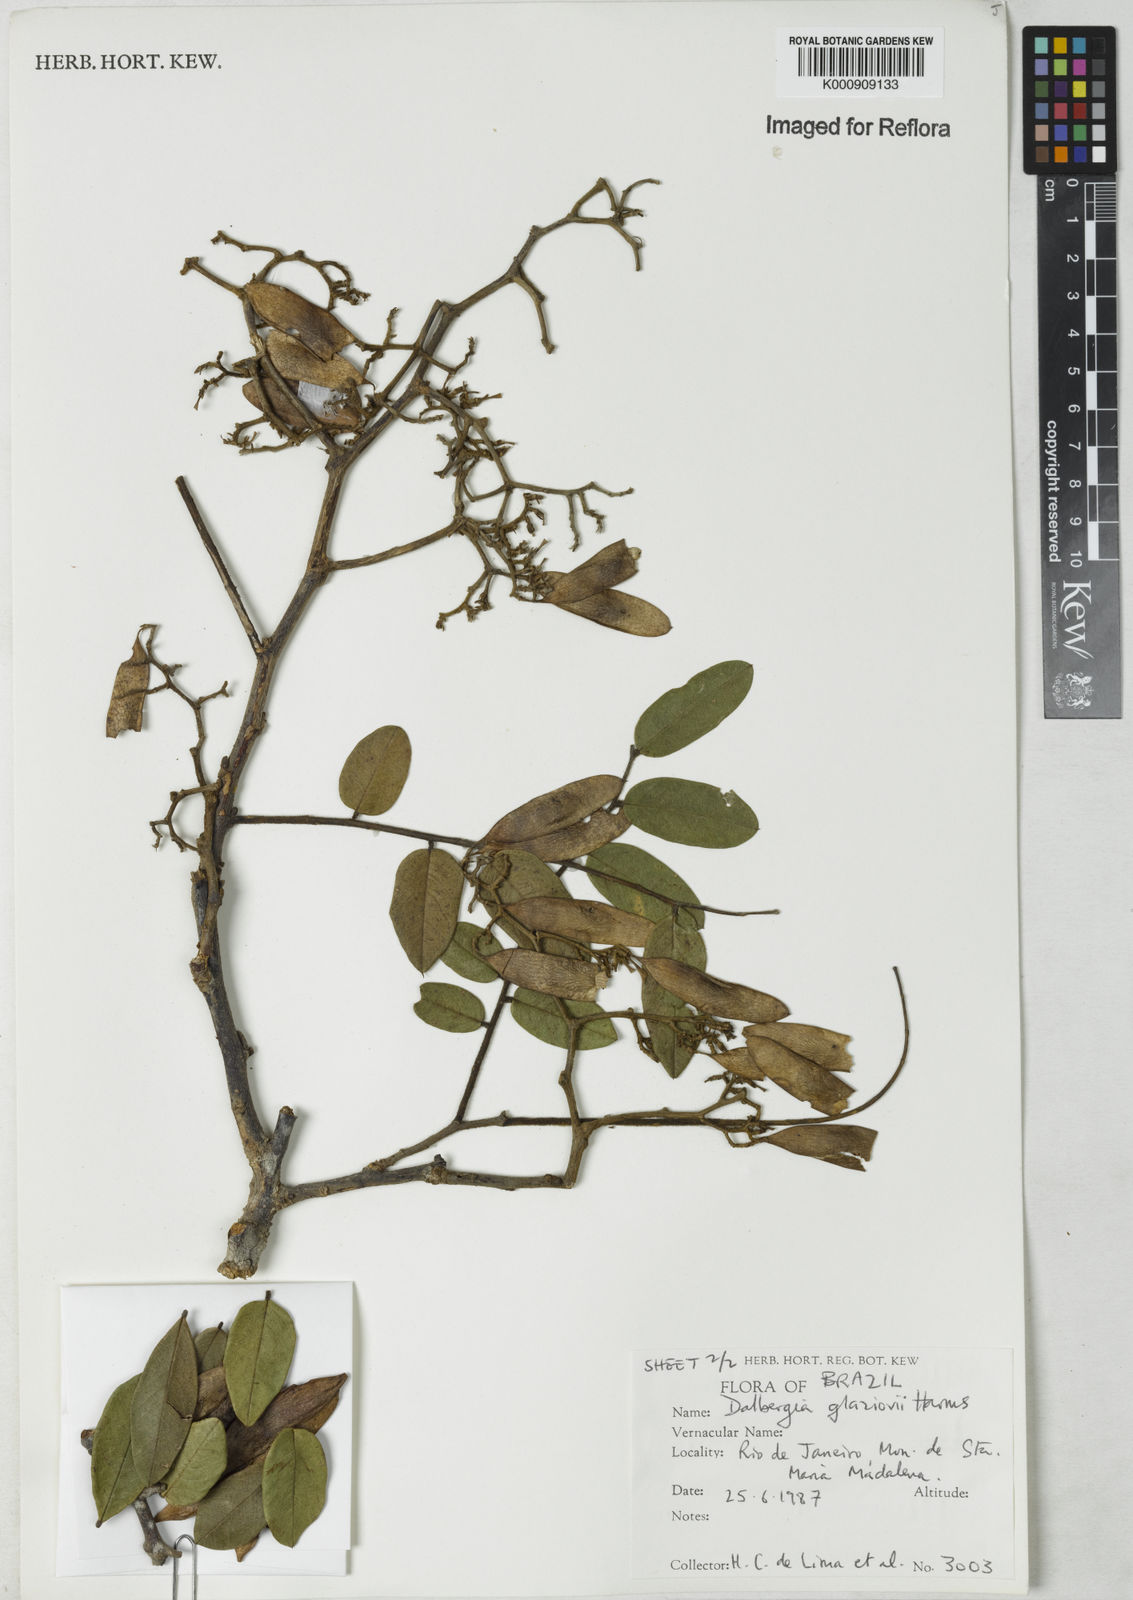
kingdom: Plantae
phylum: Tracheophyta
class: Magnoliopsida
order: Fabales
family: Fabaceae
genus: Dalbergia
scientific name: Dalbergia glaziovii
